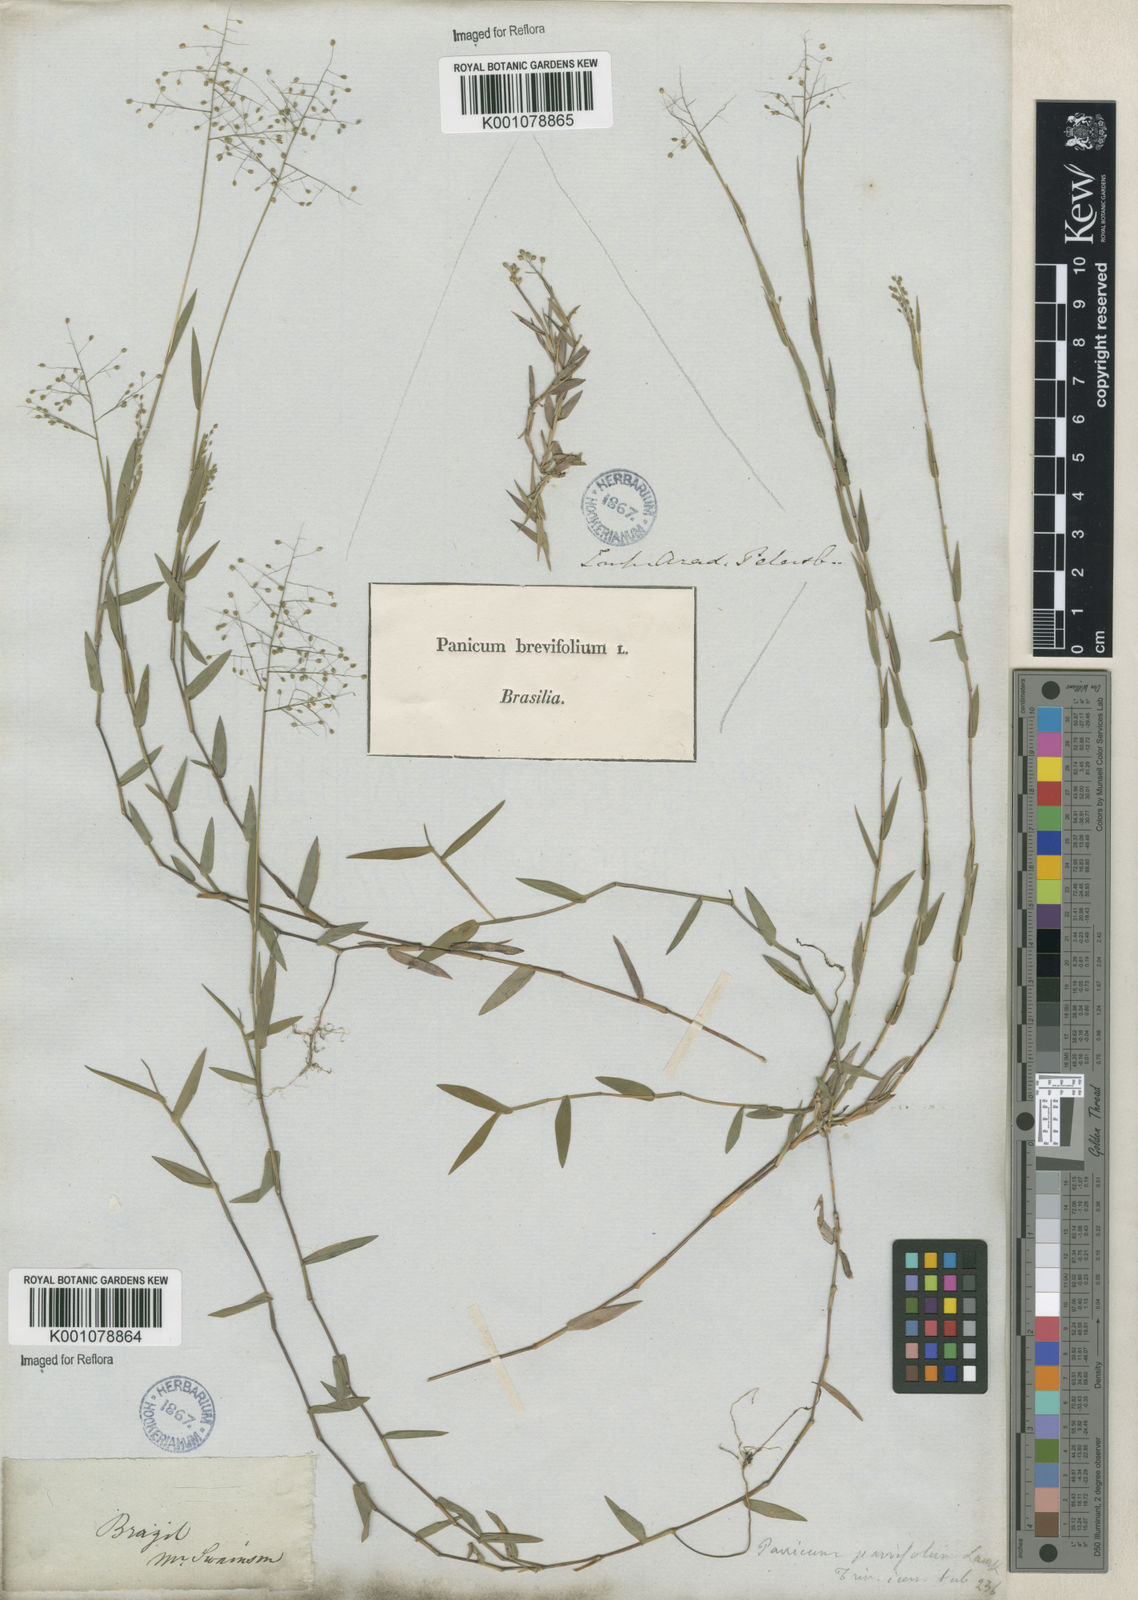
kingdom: Plantae
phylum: Tracheophyta
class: Liliopsida
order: Poales
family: Poaceae
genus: Trichanthecium
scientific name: Trichanthecium parvifolium
